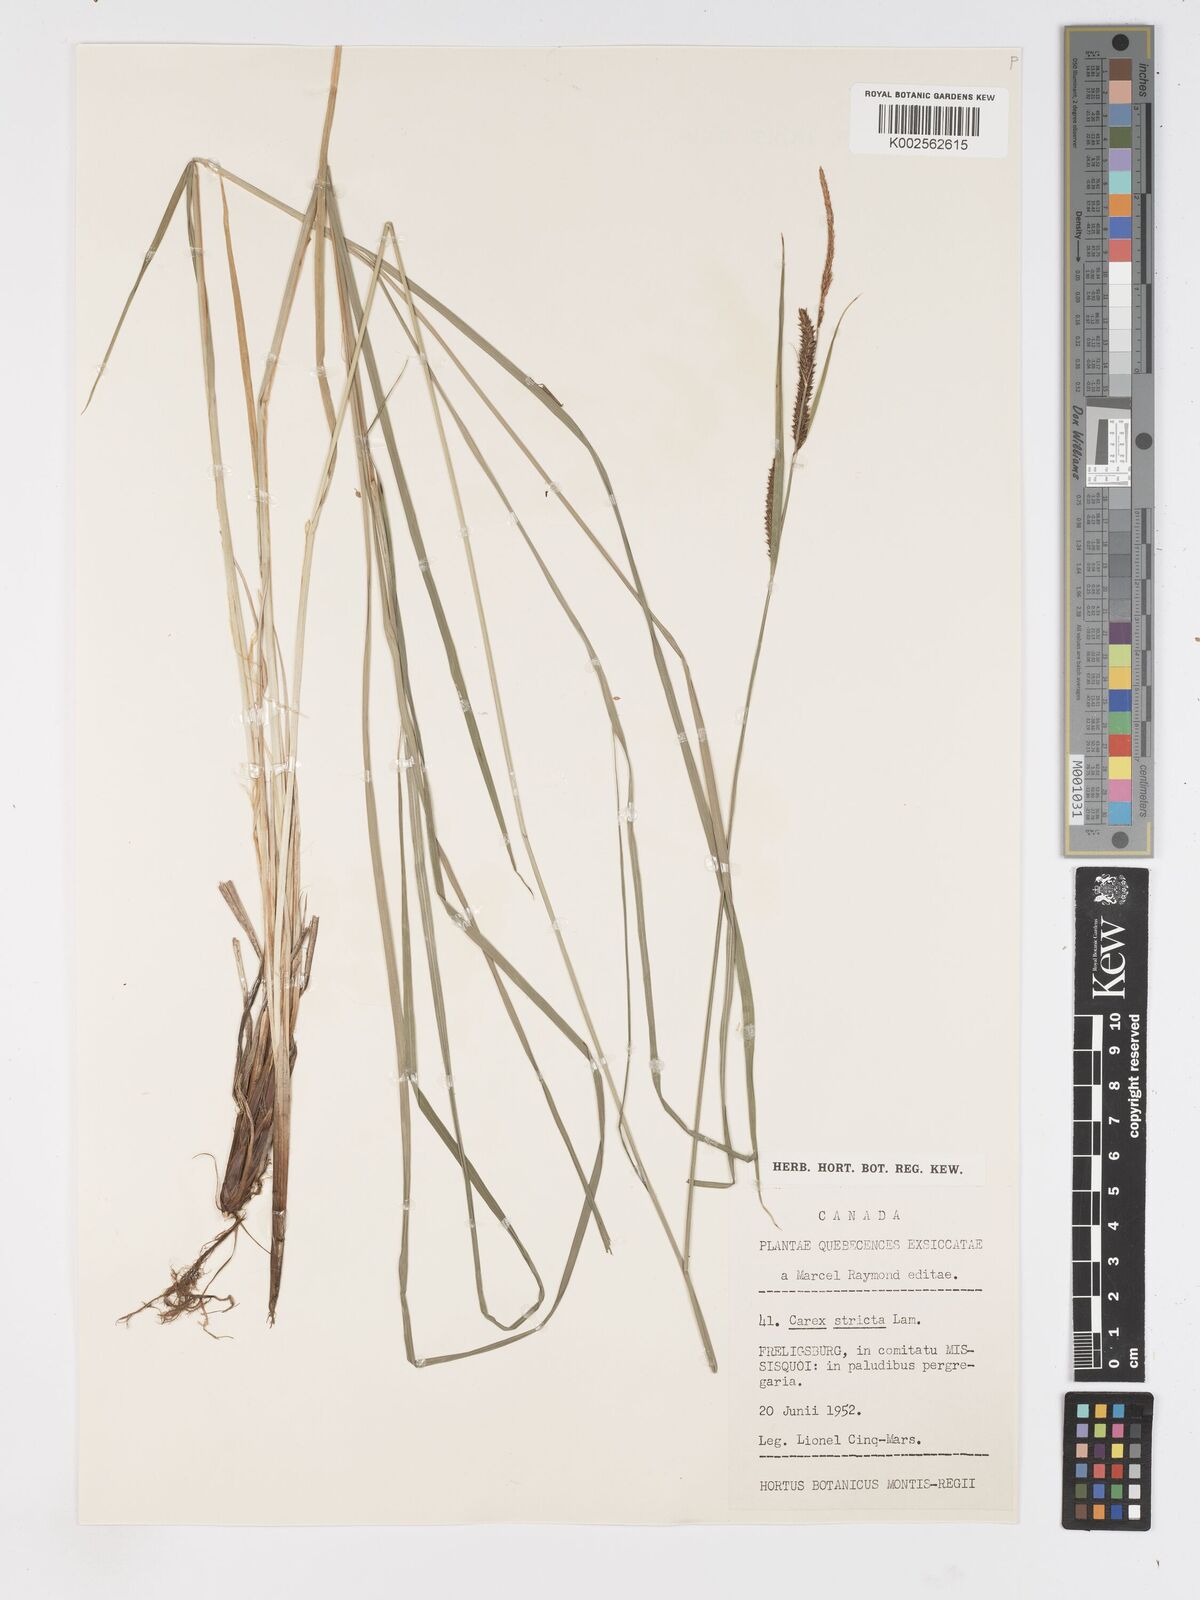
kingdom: Plantae
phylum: Tracheophyta
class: Liliopsida
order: Poales
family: Cyperaceae
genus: Carex
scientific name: Carex stricta
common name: Hummock sedge
